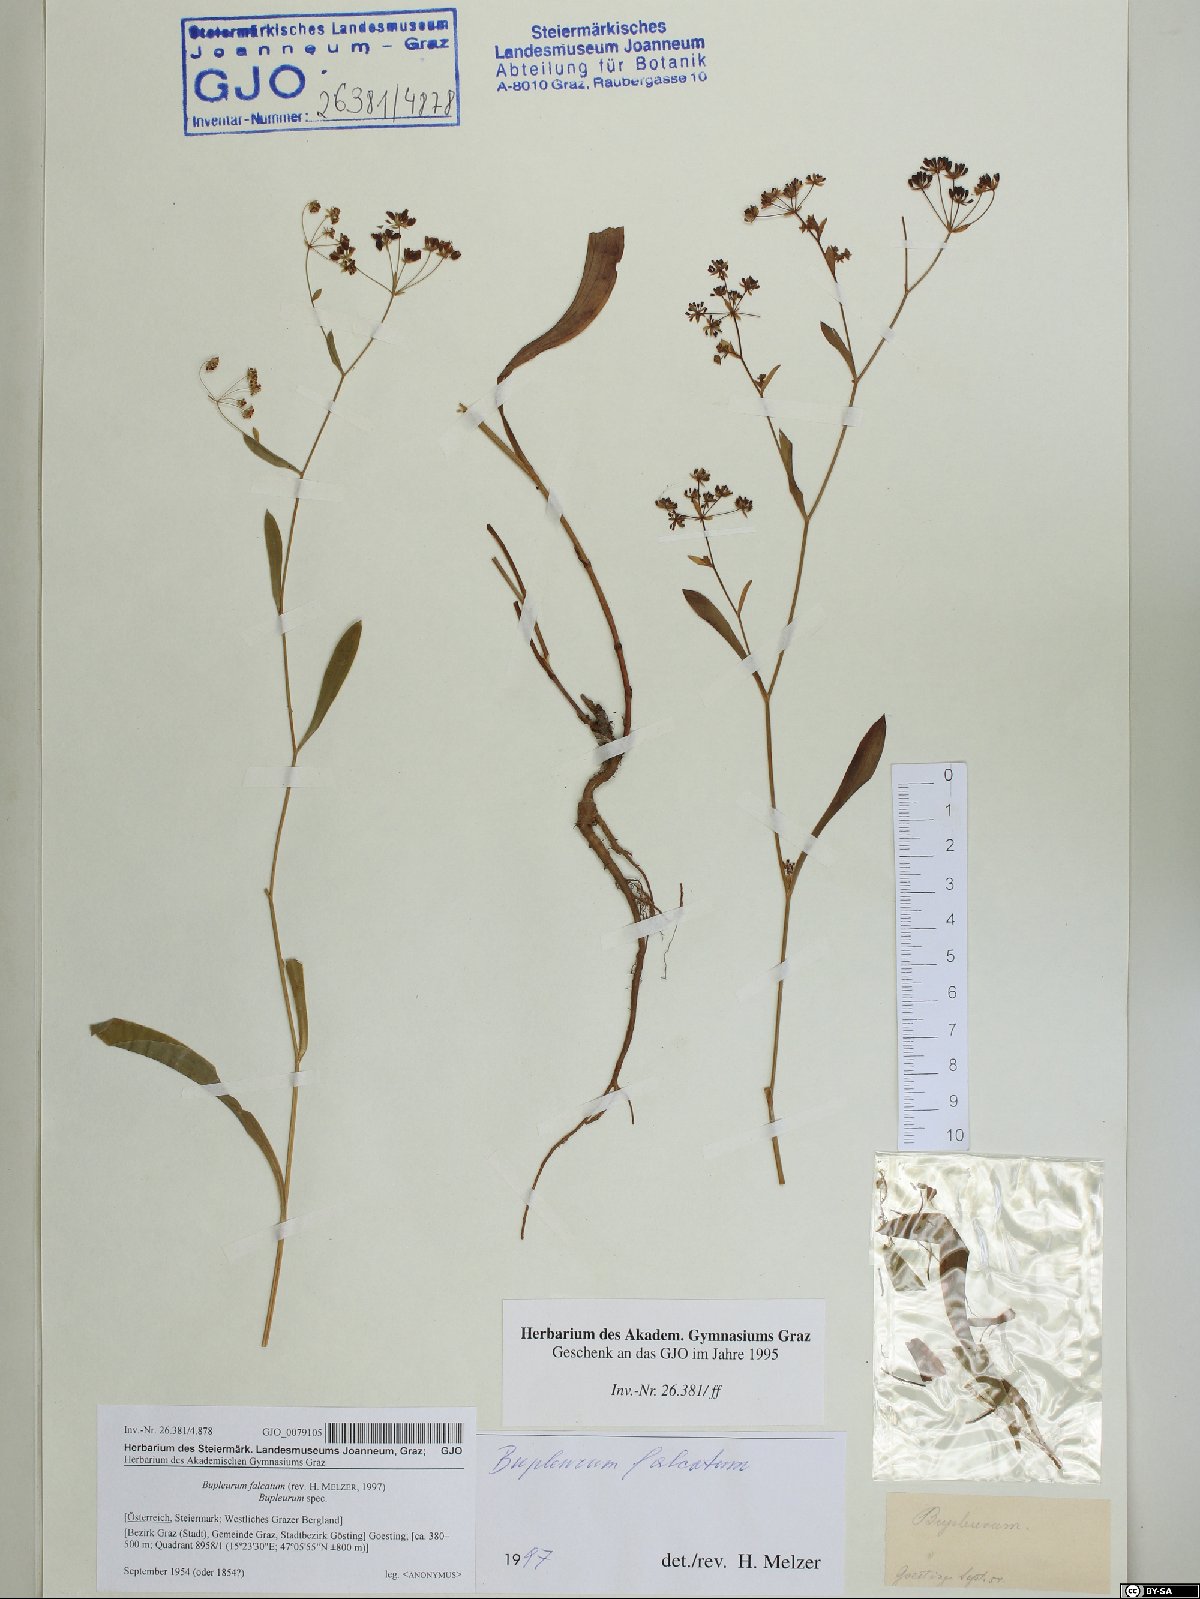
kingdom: Plantae
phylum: Tracheophyta
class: Magnoliopsida
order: Apiales
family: Apiaceae
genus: Bupleurum
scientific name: Bupleurum falcatum
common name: Sickle-leaved hare's-ear
